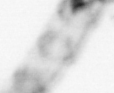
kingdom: Animalia
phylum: Arthropoda
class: Copepoda
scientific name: Copepoda
